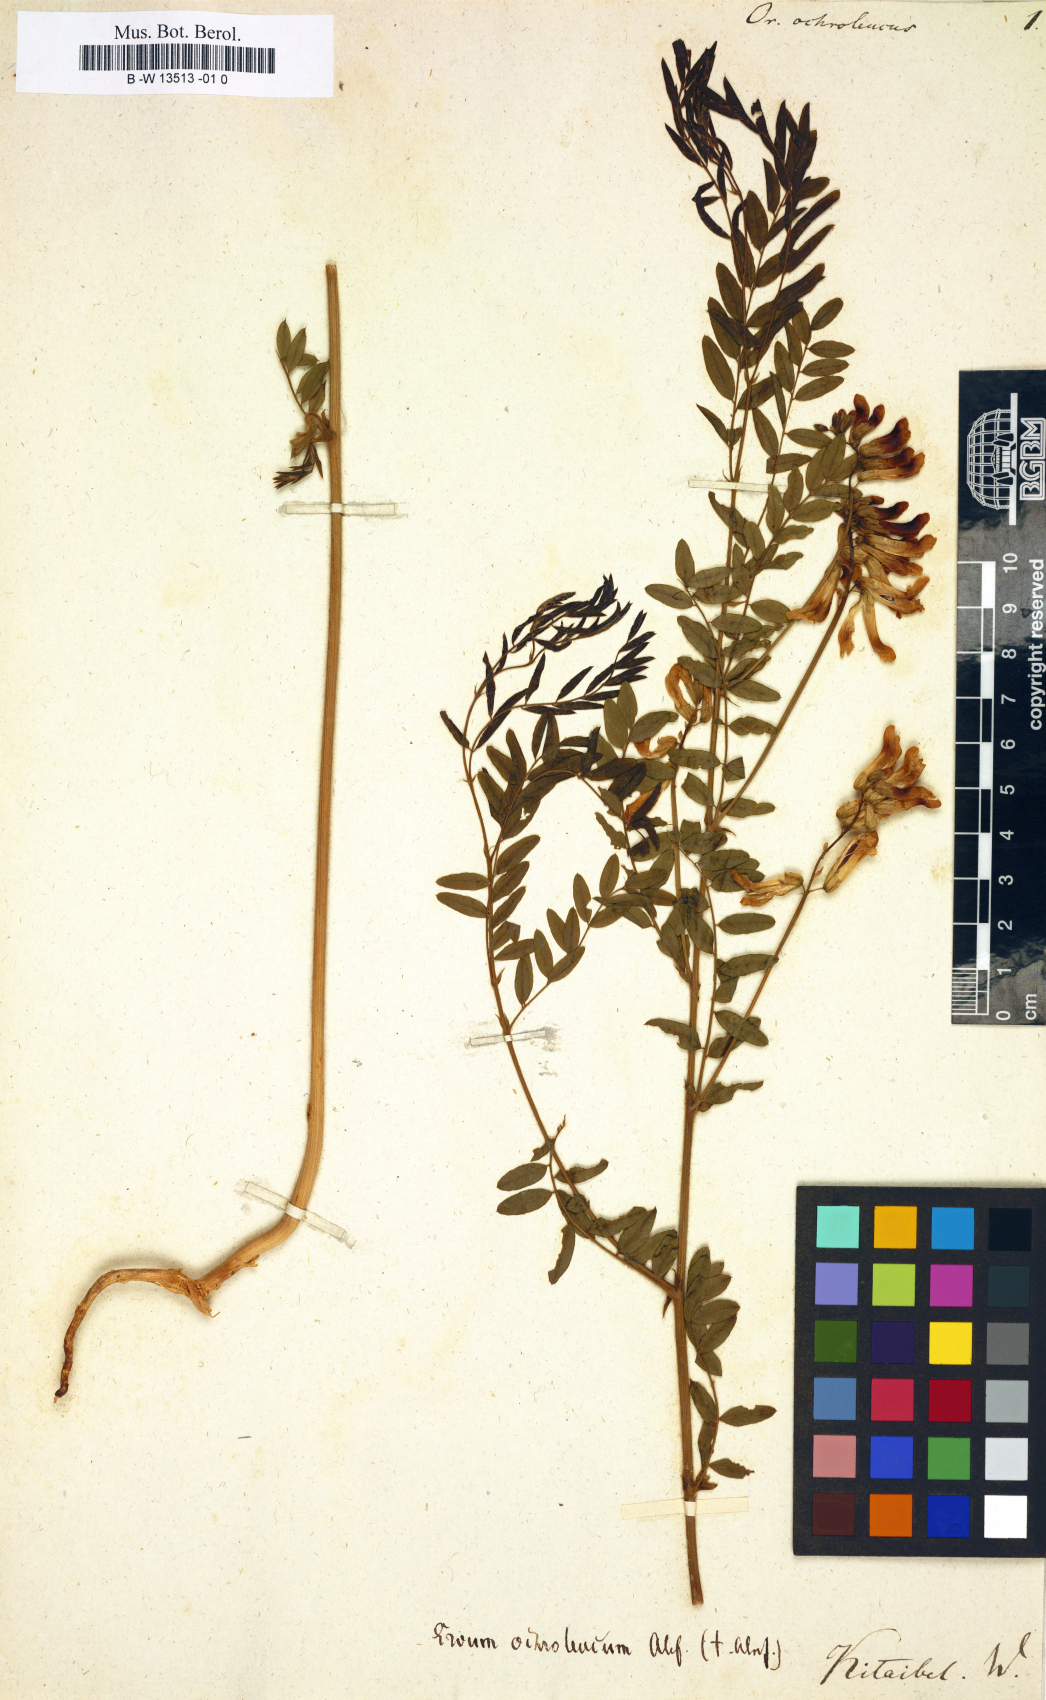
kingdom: Plantae
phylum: Tracheophyta
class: Magnoliopsida
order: Fabales
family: Fabaceae
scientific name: Fabaceae
